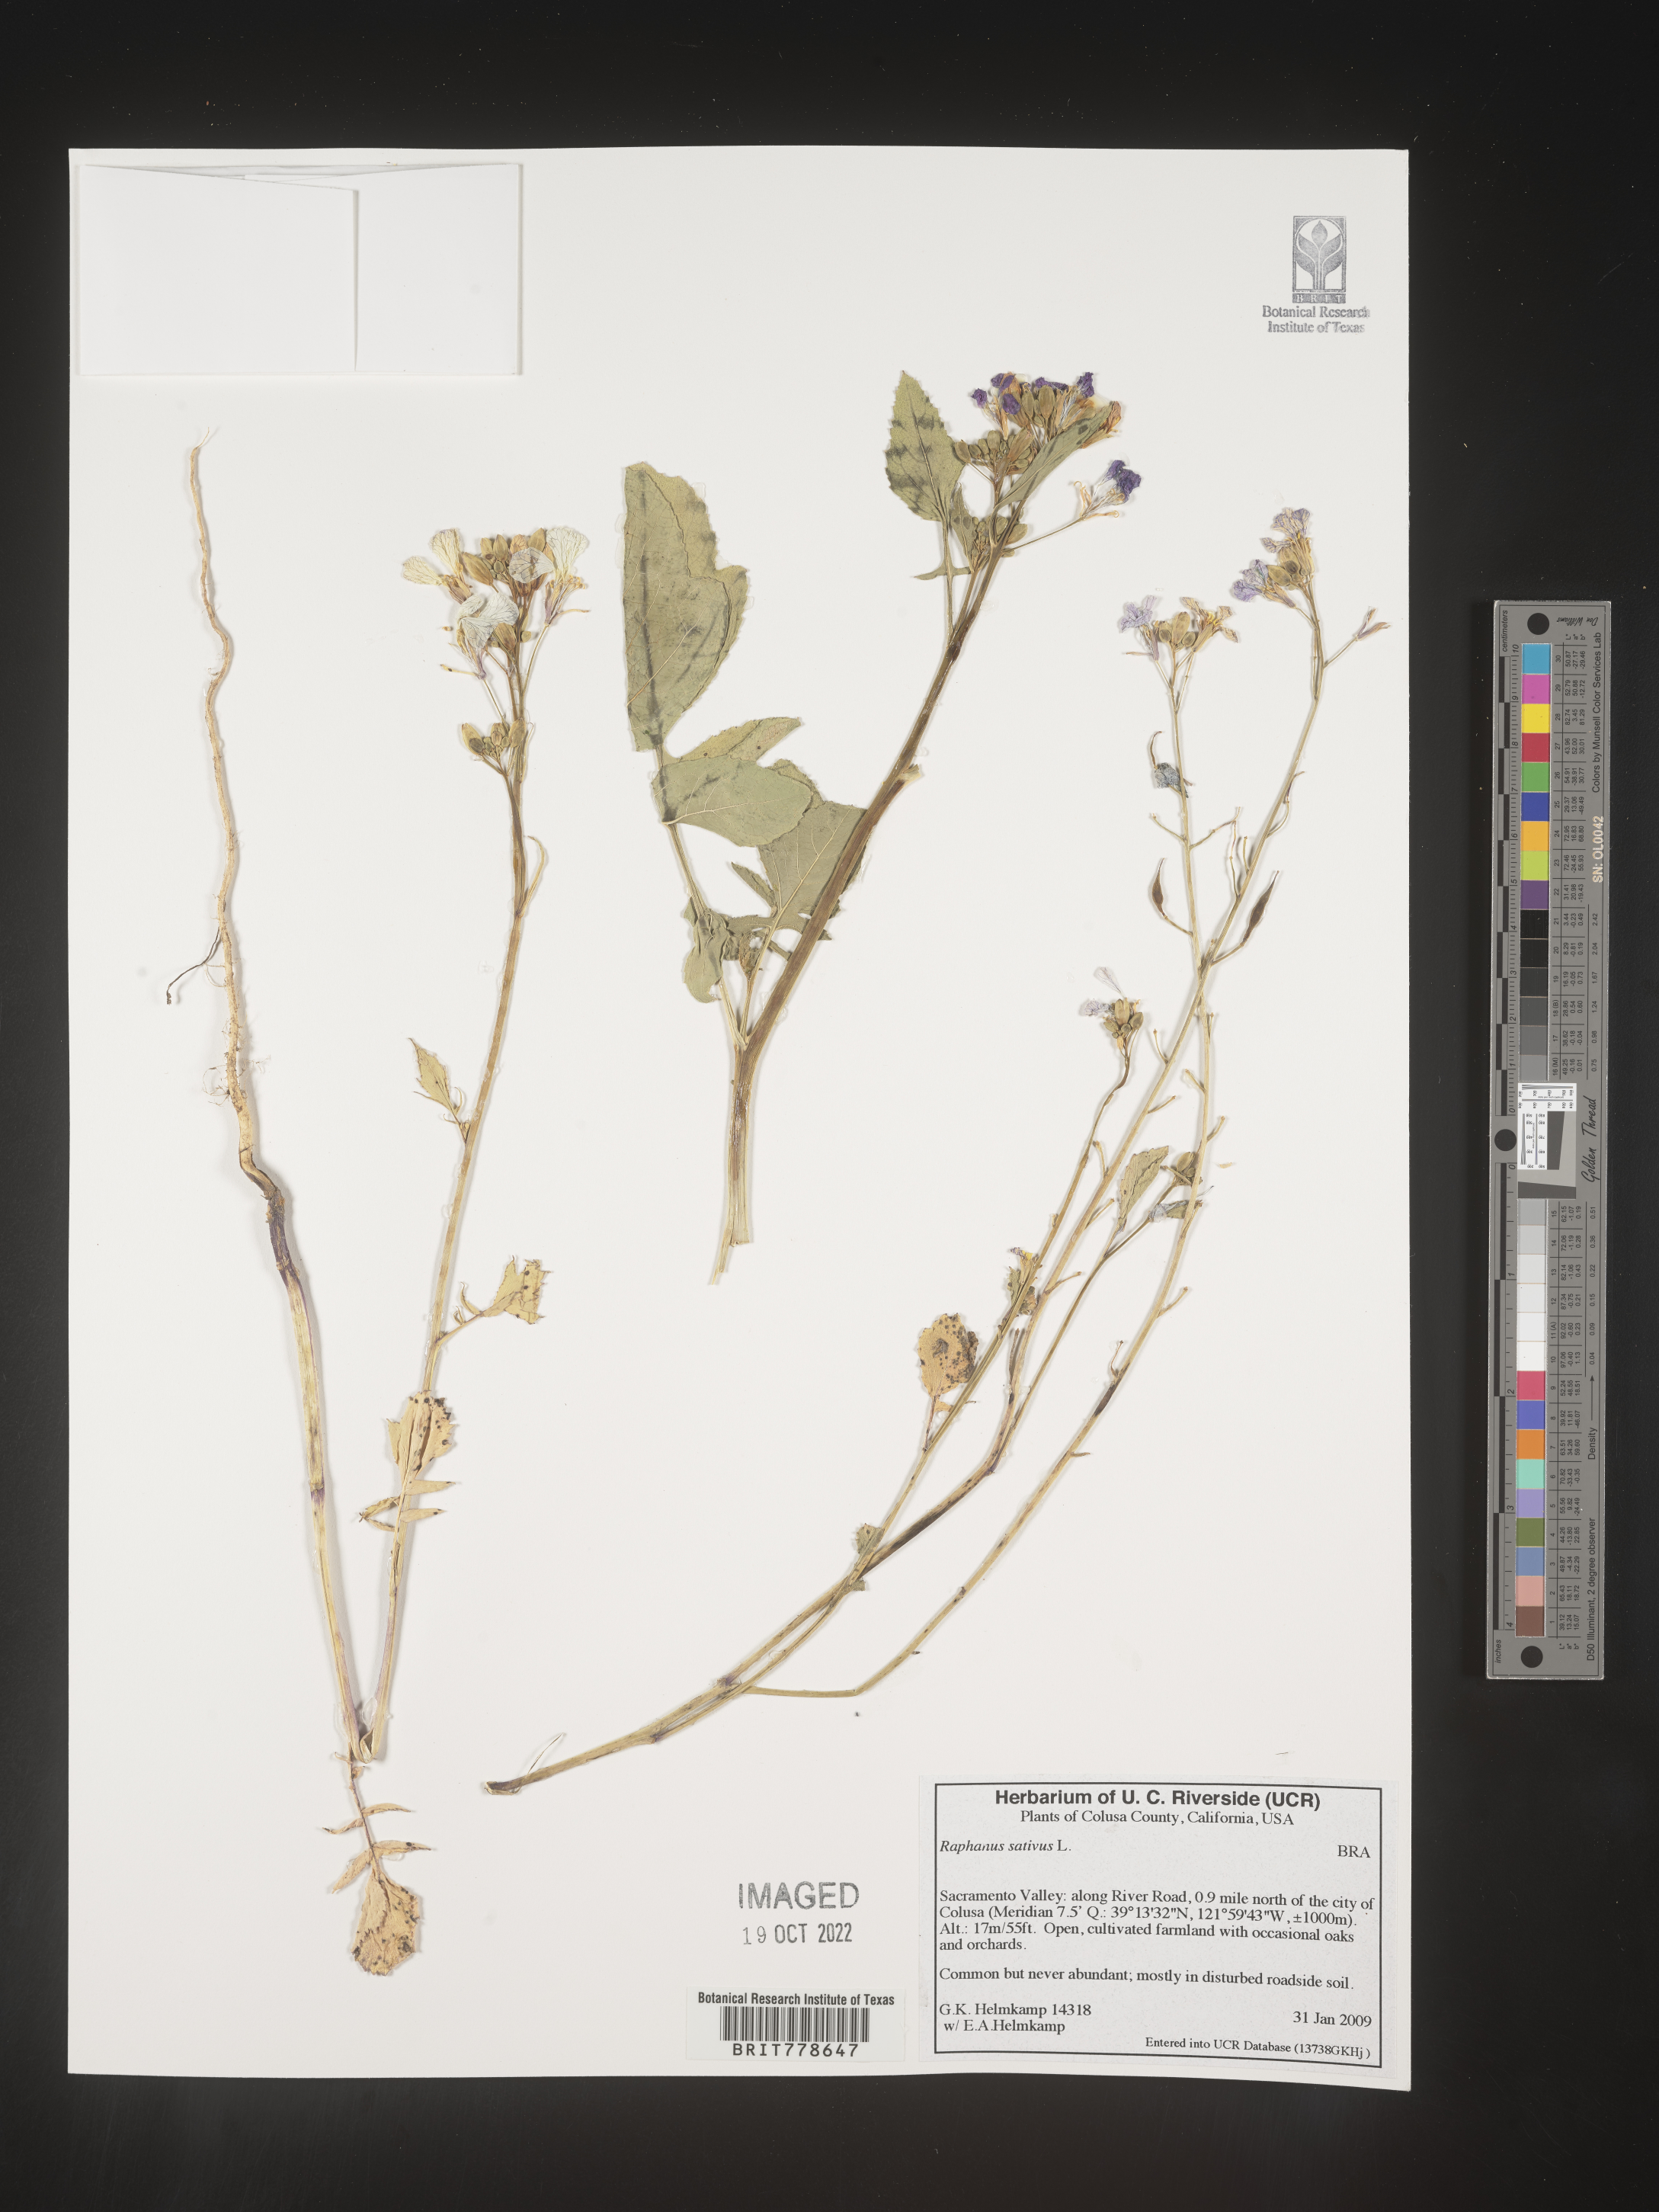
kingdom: Plantae
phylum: Tracheophyta
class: Magnoliopsida
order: Brassicales
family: Brassicaceae
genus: Raphanus
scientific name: Raphanus sativus
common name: Cultivated radish
